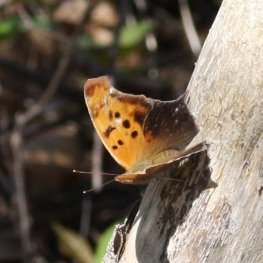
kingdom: Animalia
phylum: Arthropoda
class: Insecta
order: Lepidoptera
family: Nymphalidae
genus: Polygonia
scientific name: Polygonia interrogationis
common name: Question Mark
